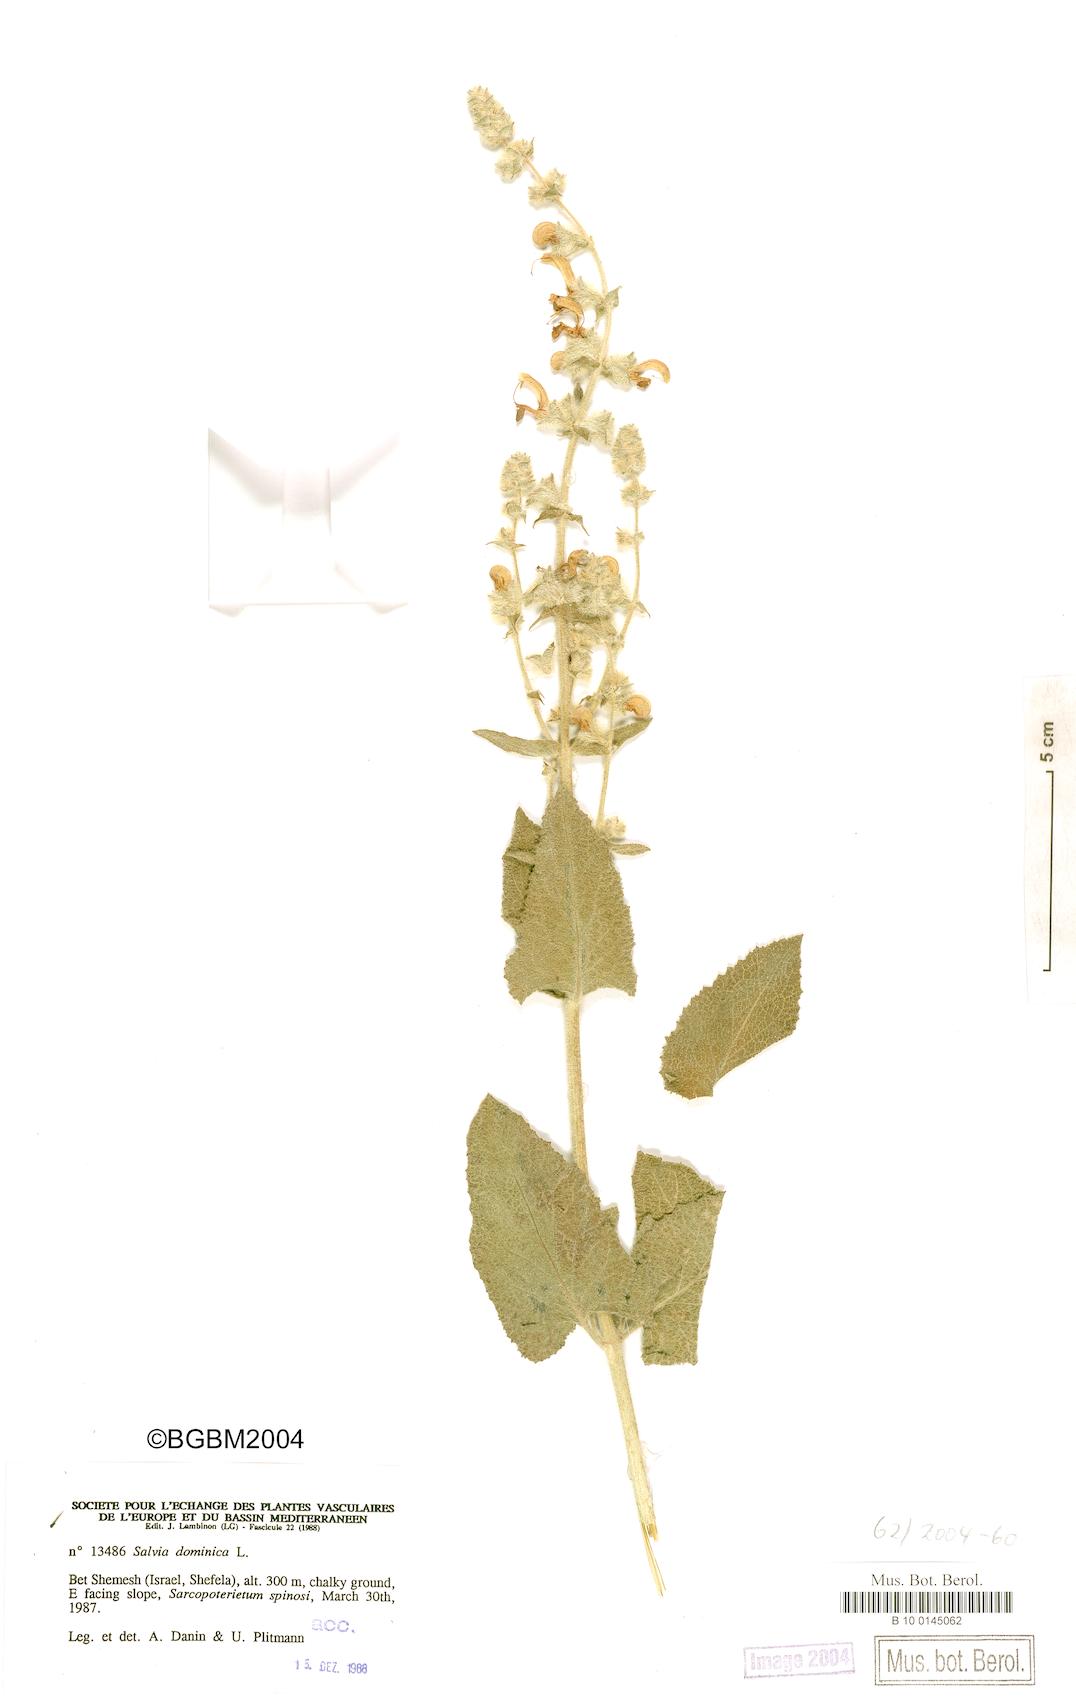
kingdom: Plantae
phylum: Tracheophyta
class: Magnoliopsida
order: Lamiales
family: Lamiaceae
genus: Salvia
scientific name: Salvia dominica
